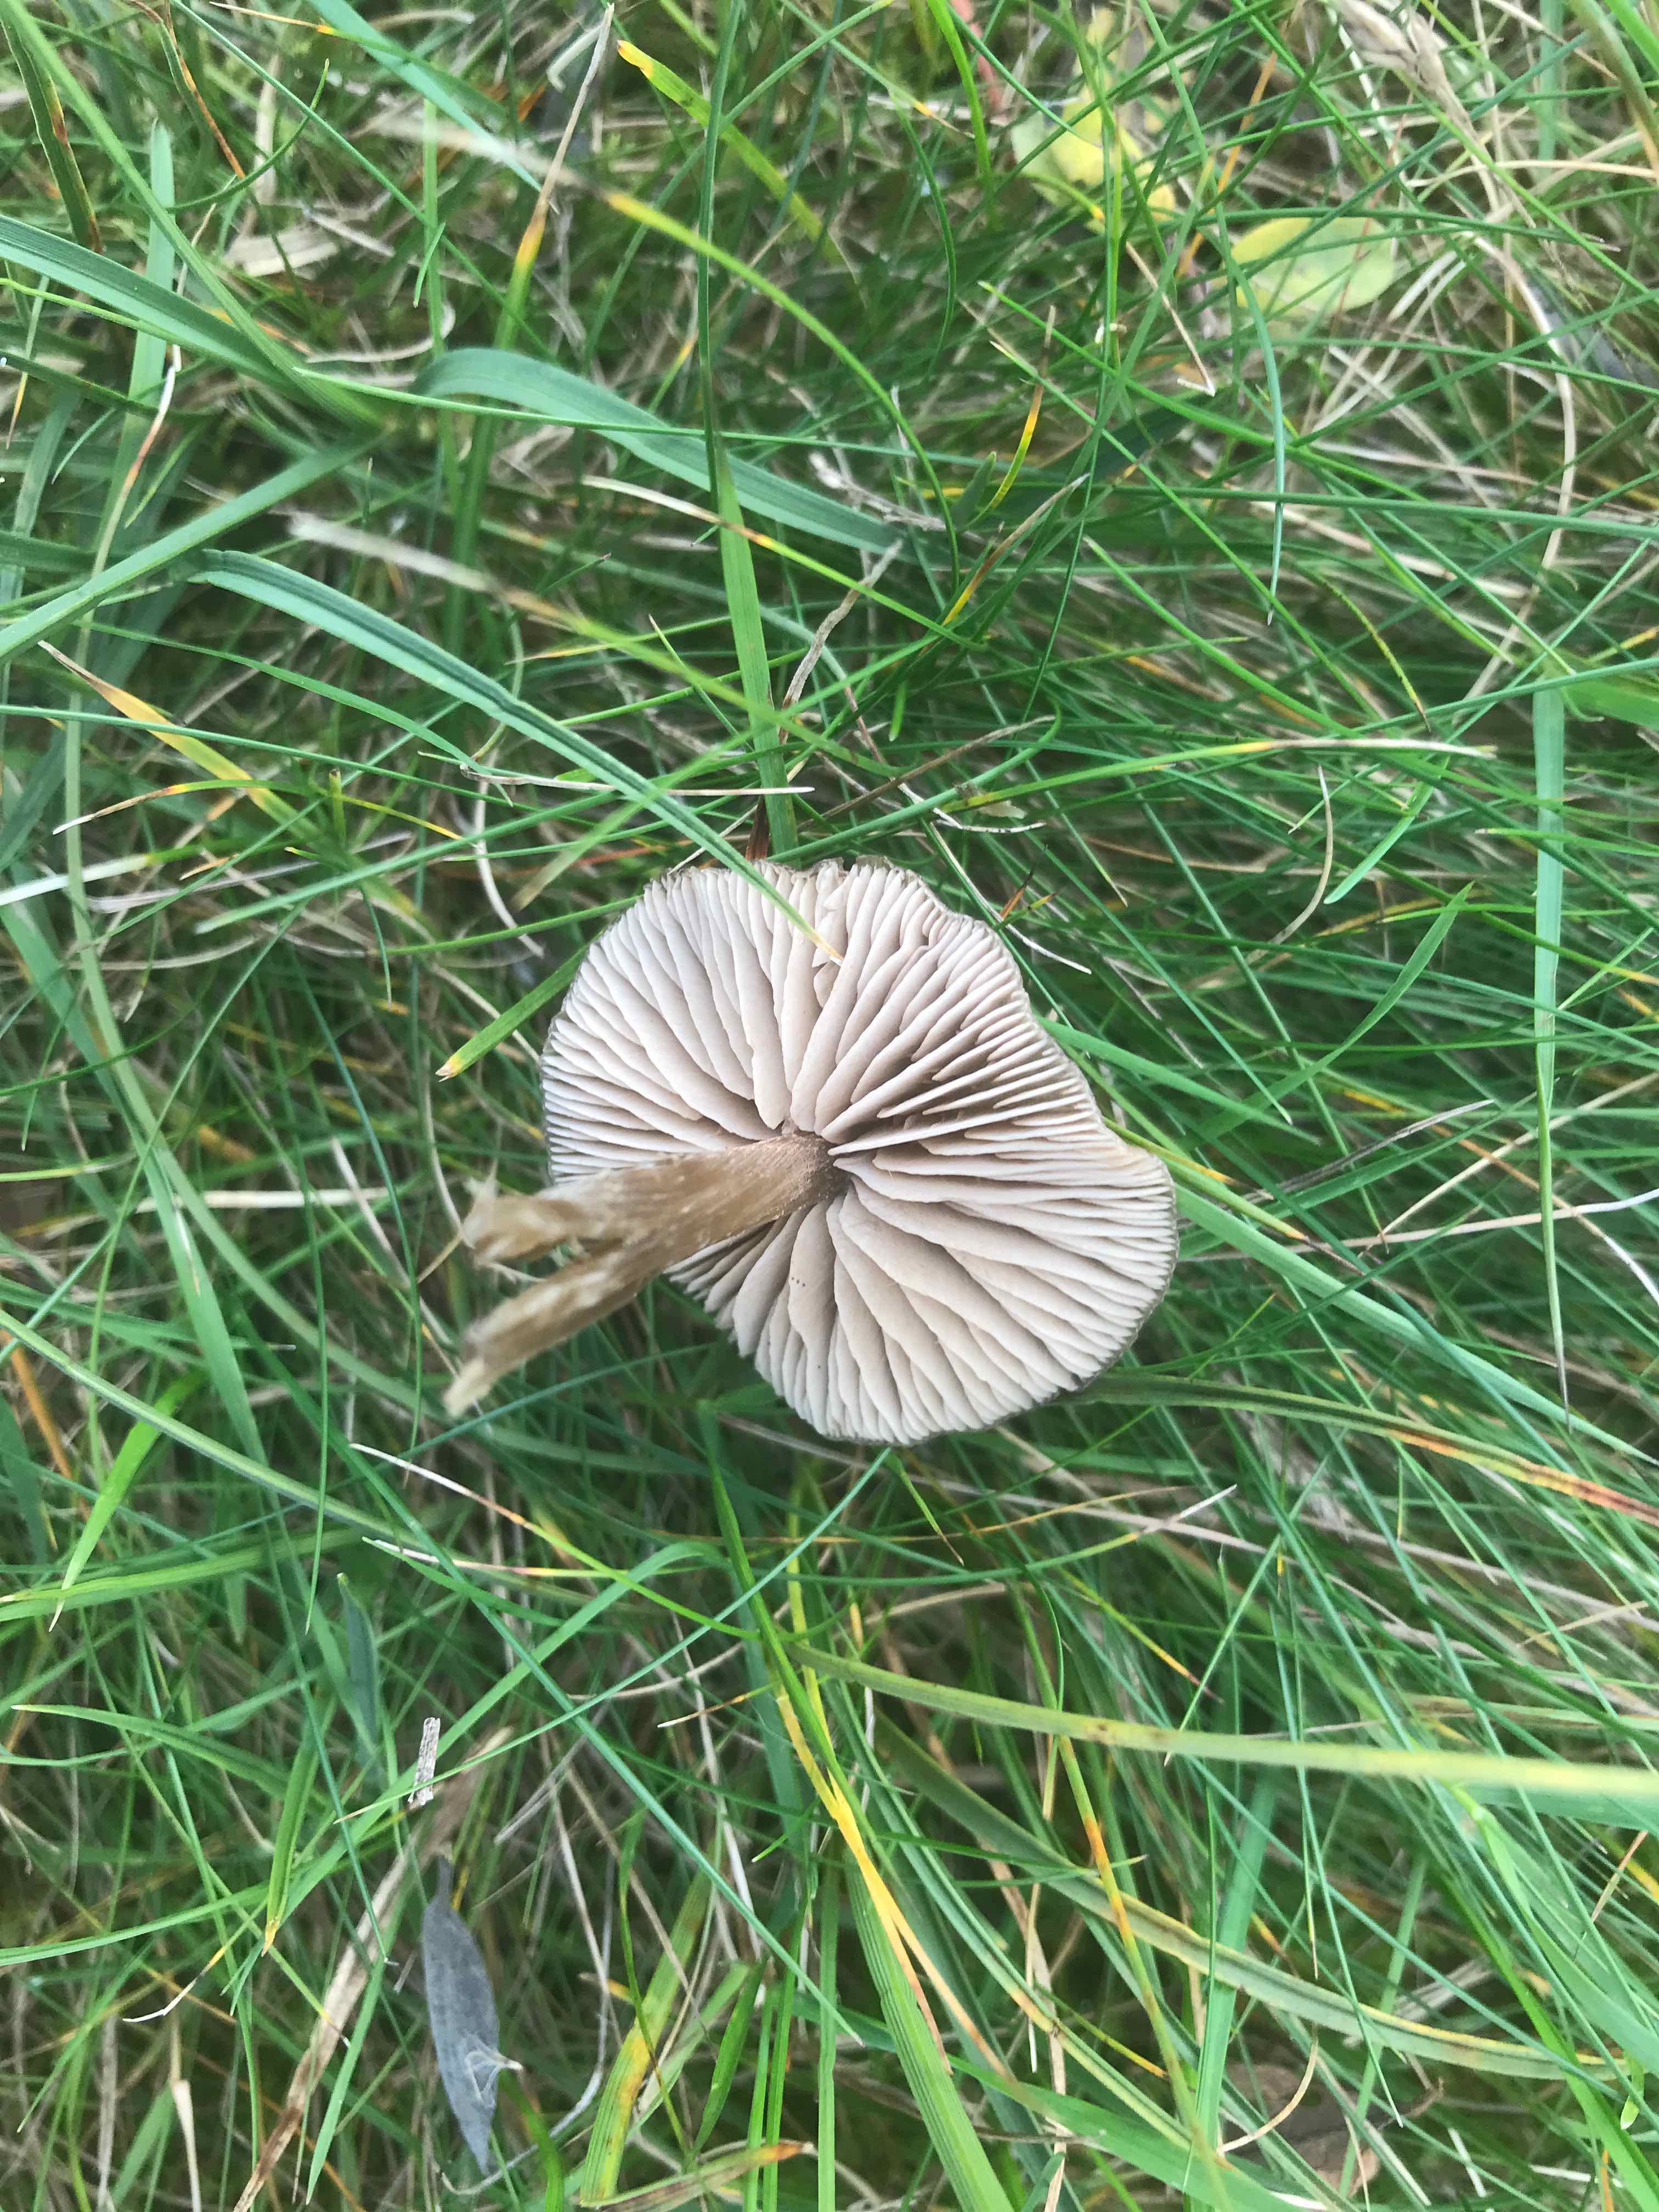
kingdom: Fungi
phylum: Basidiomycota
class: Agaricomycetes
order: Agaricales
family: Entolomataceae
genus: Entoloma
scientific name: Entoloma
